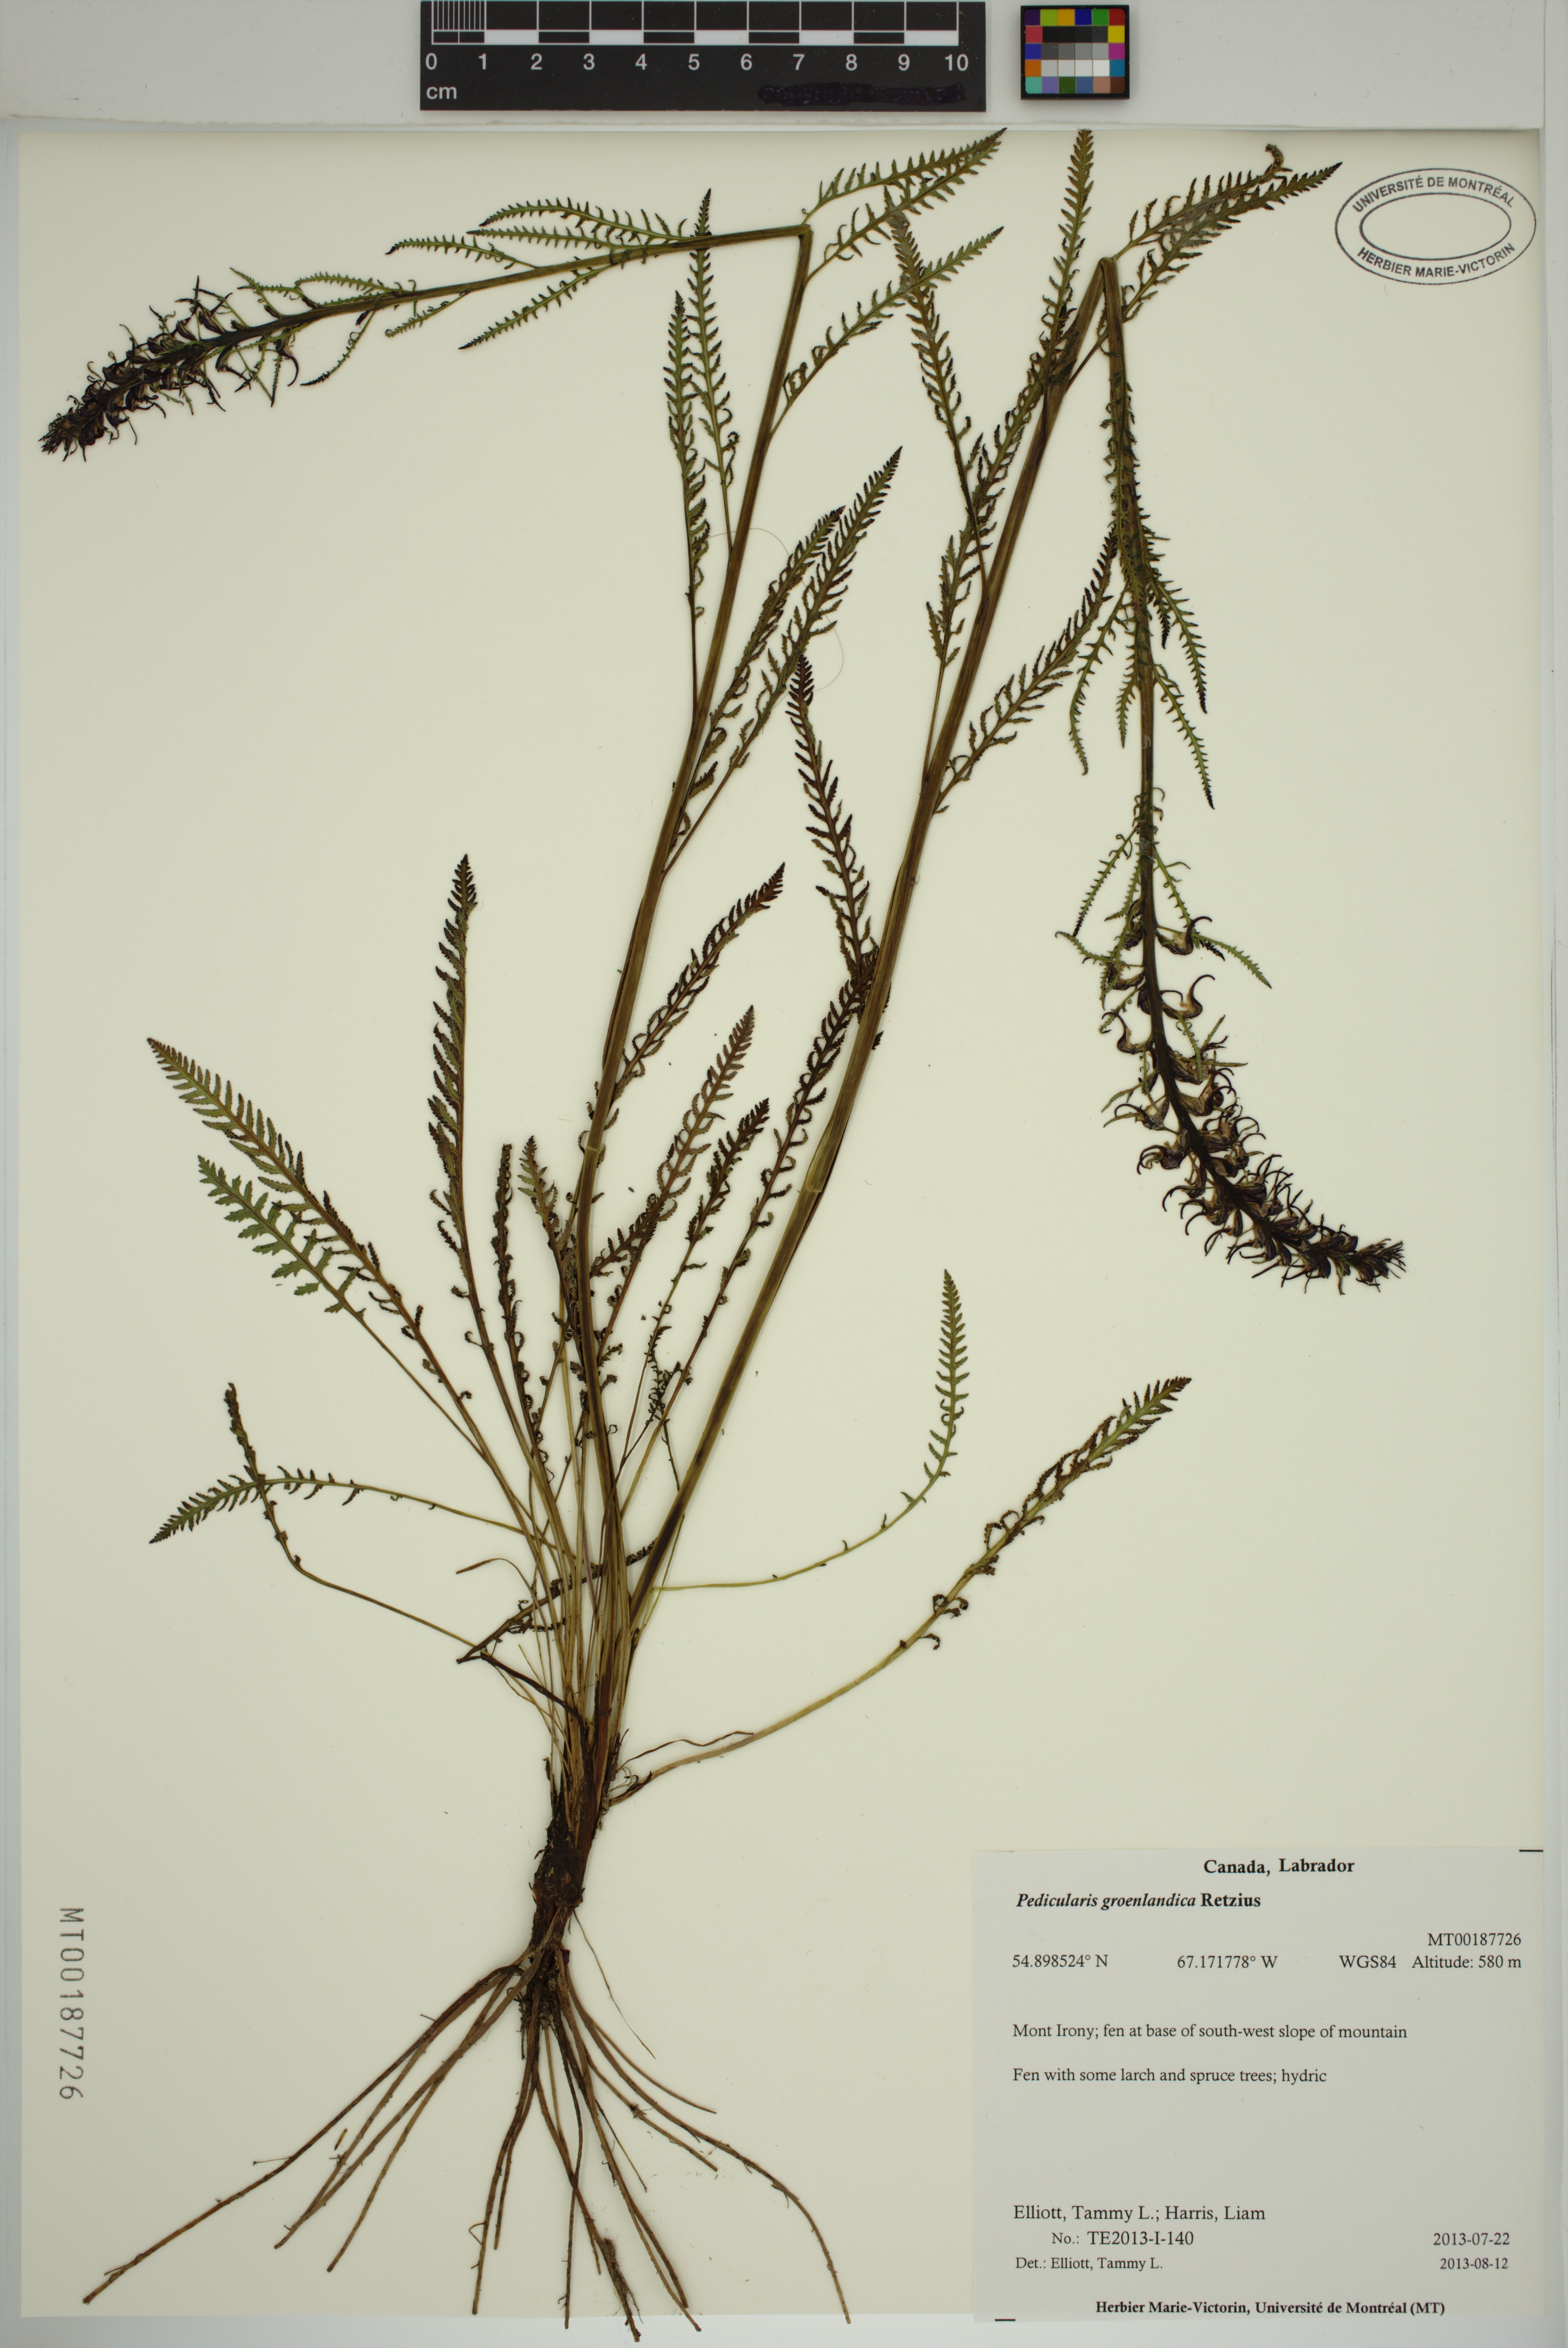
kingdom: Plantae
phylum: Tracheophyta
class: Magnoliopsida
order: Lamiales
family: Orobanchaceae
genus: Pedicularis
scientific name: Pedicularis groenlandica
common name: Elephant's-head
